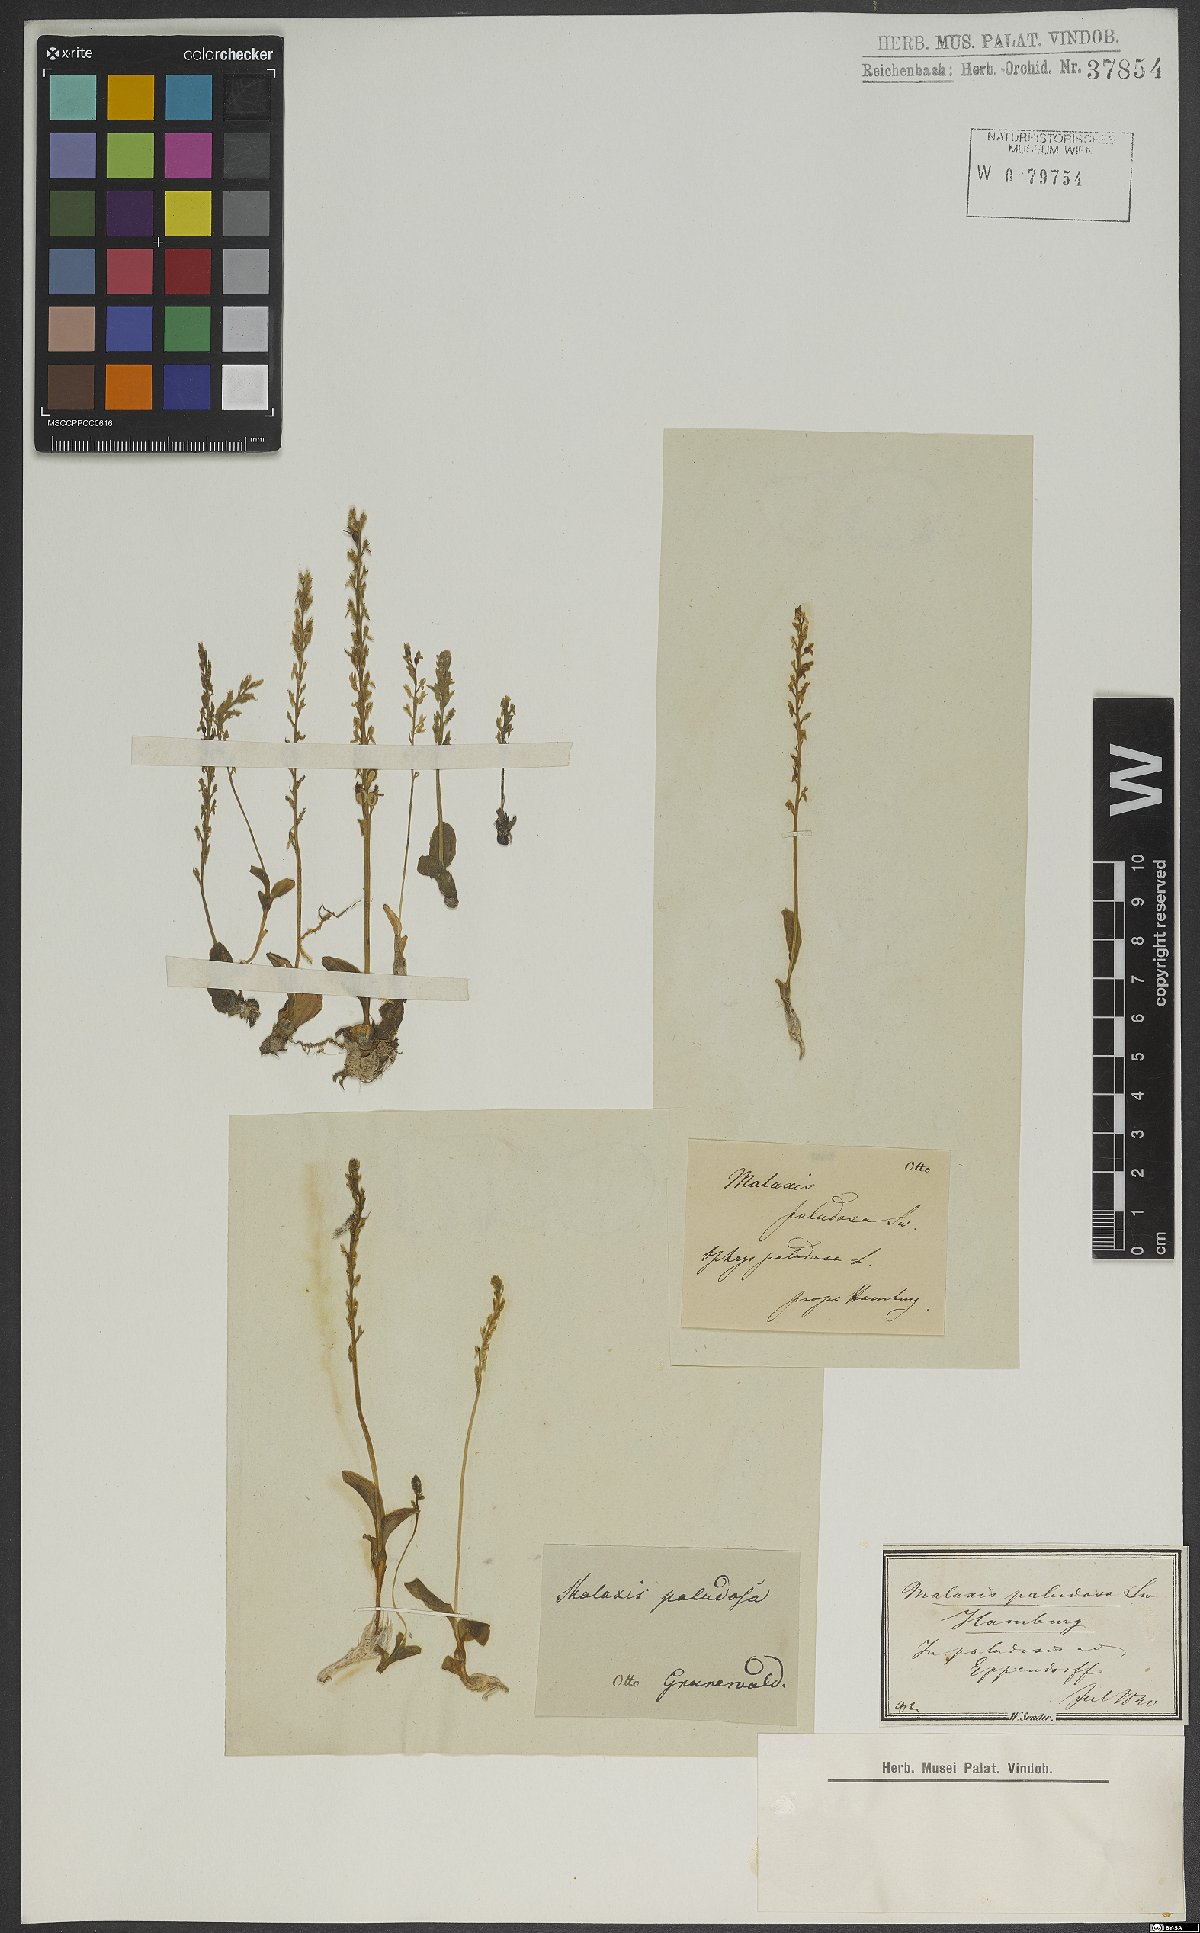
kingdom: Plantae
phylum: Tracheophyta
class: Liliopsida
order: Asparagales
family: Orchidaceae
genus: Hammarbya
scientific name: Hammarbya paludosa
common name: Bog orchid
